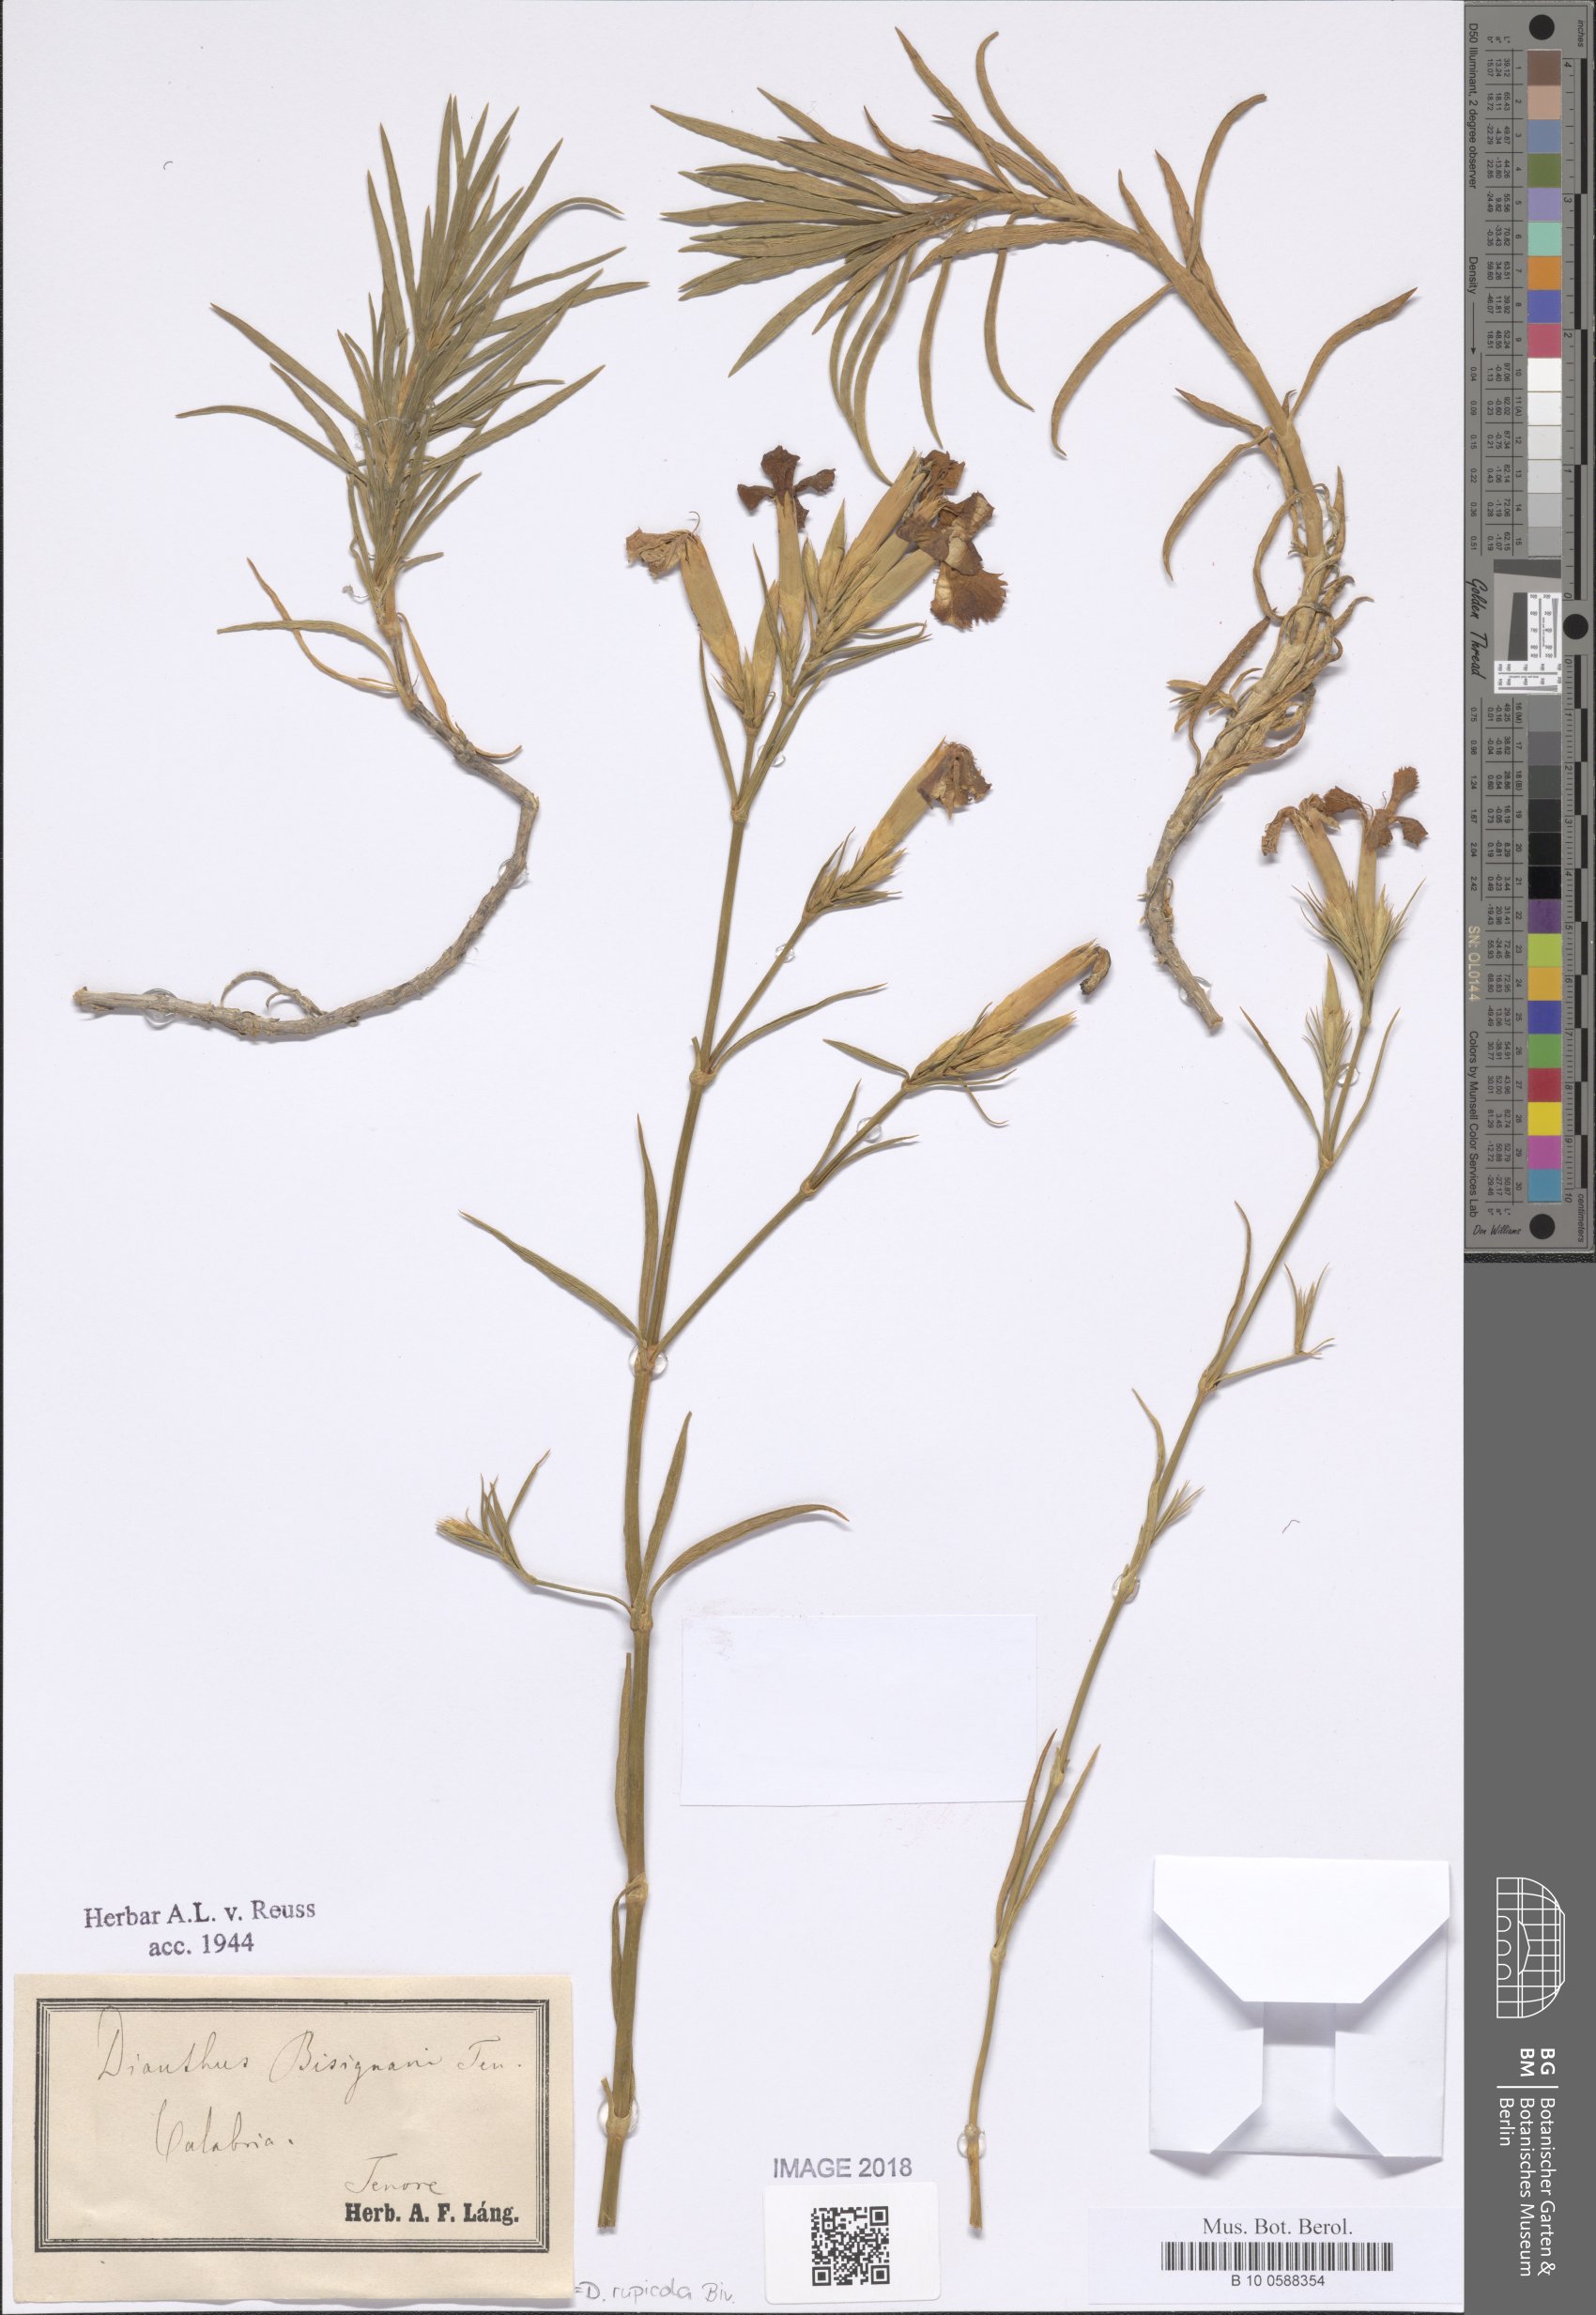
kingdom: Plantae
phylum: Tracheophyta
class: Magnoliopsida
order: Caryophyllales
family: Caryophyllaceae
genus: Dianthus
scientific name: Dianthus rupicola
